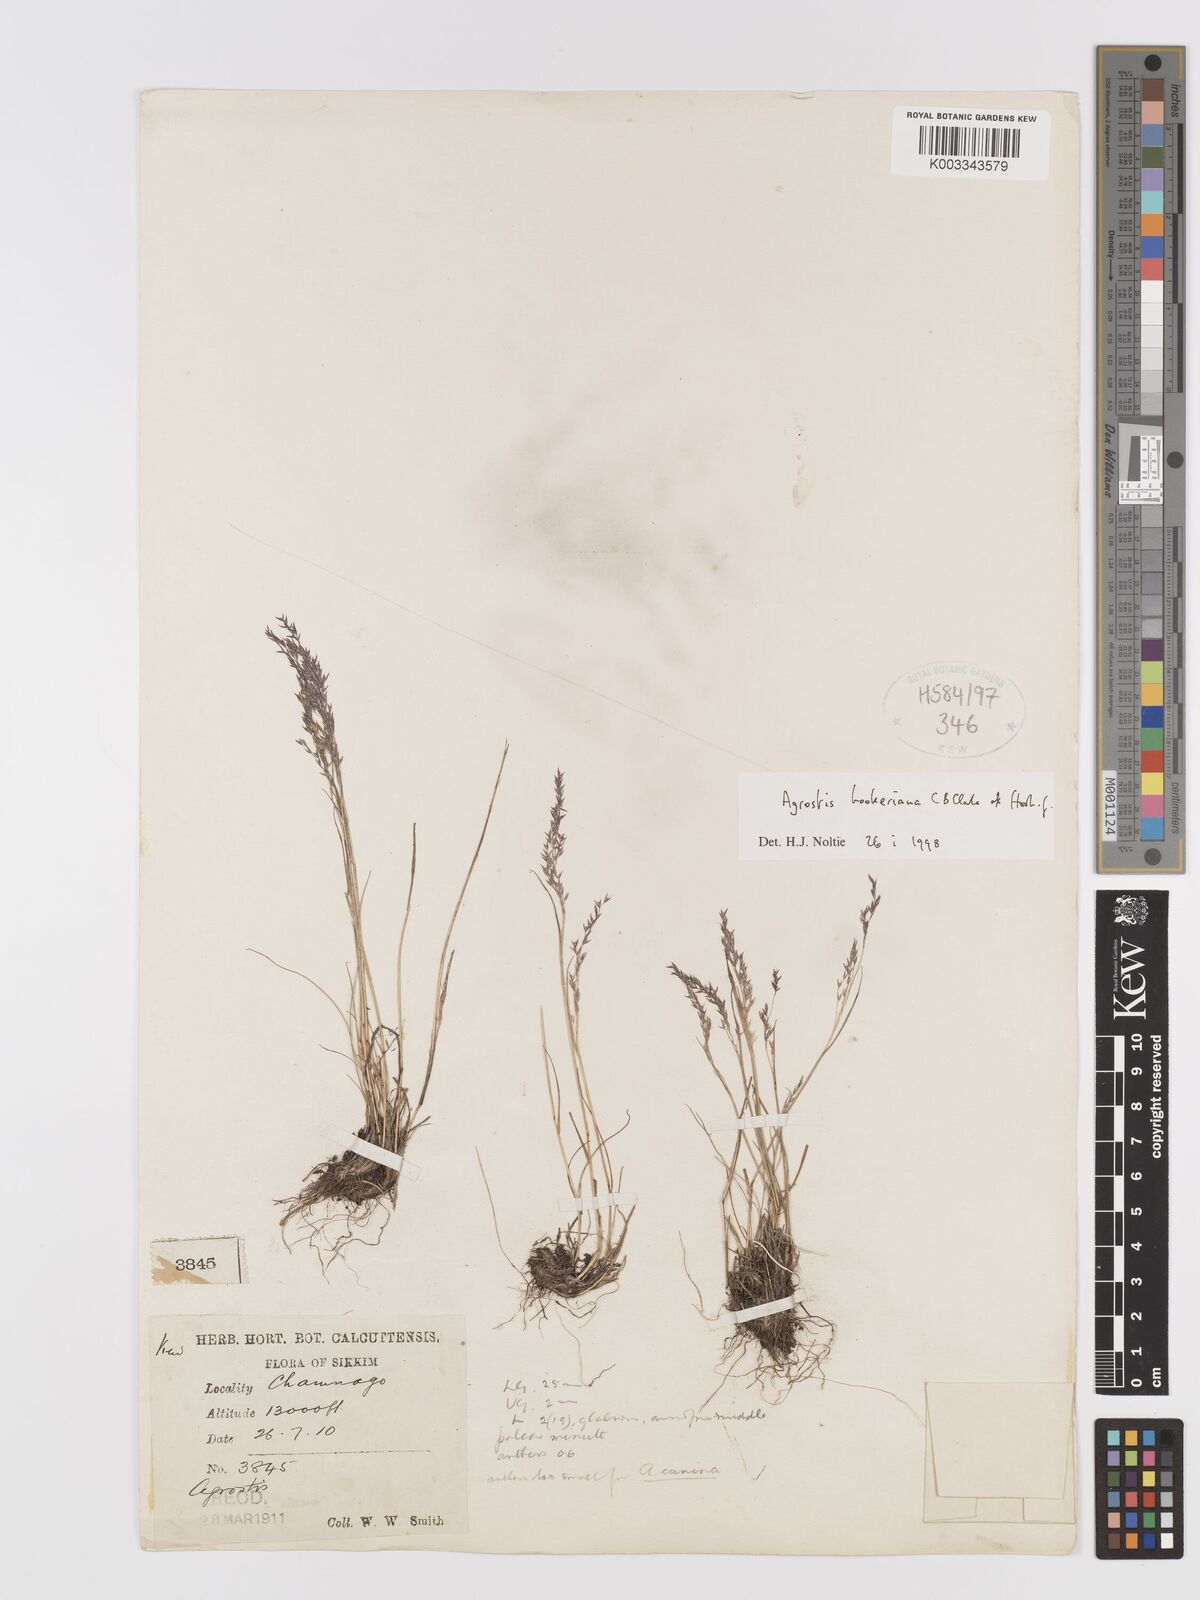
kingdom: Plantae
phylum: Tracheophyta
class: Liliopsida
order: Poales
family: Poaceae
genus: Agrostis
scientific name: Agrostis hookeriana
